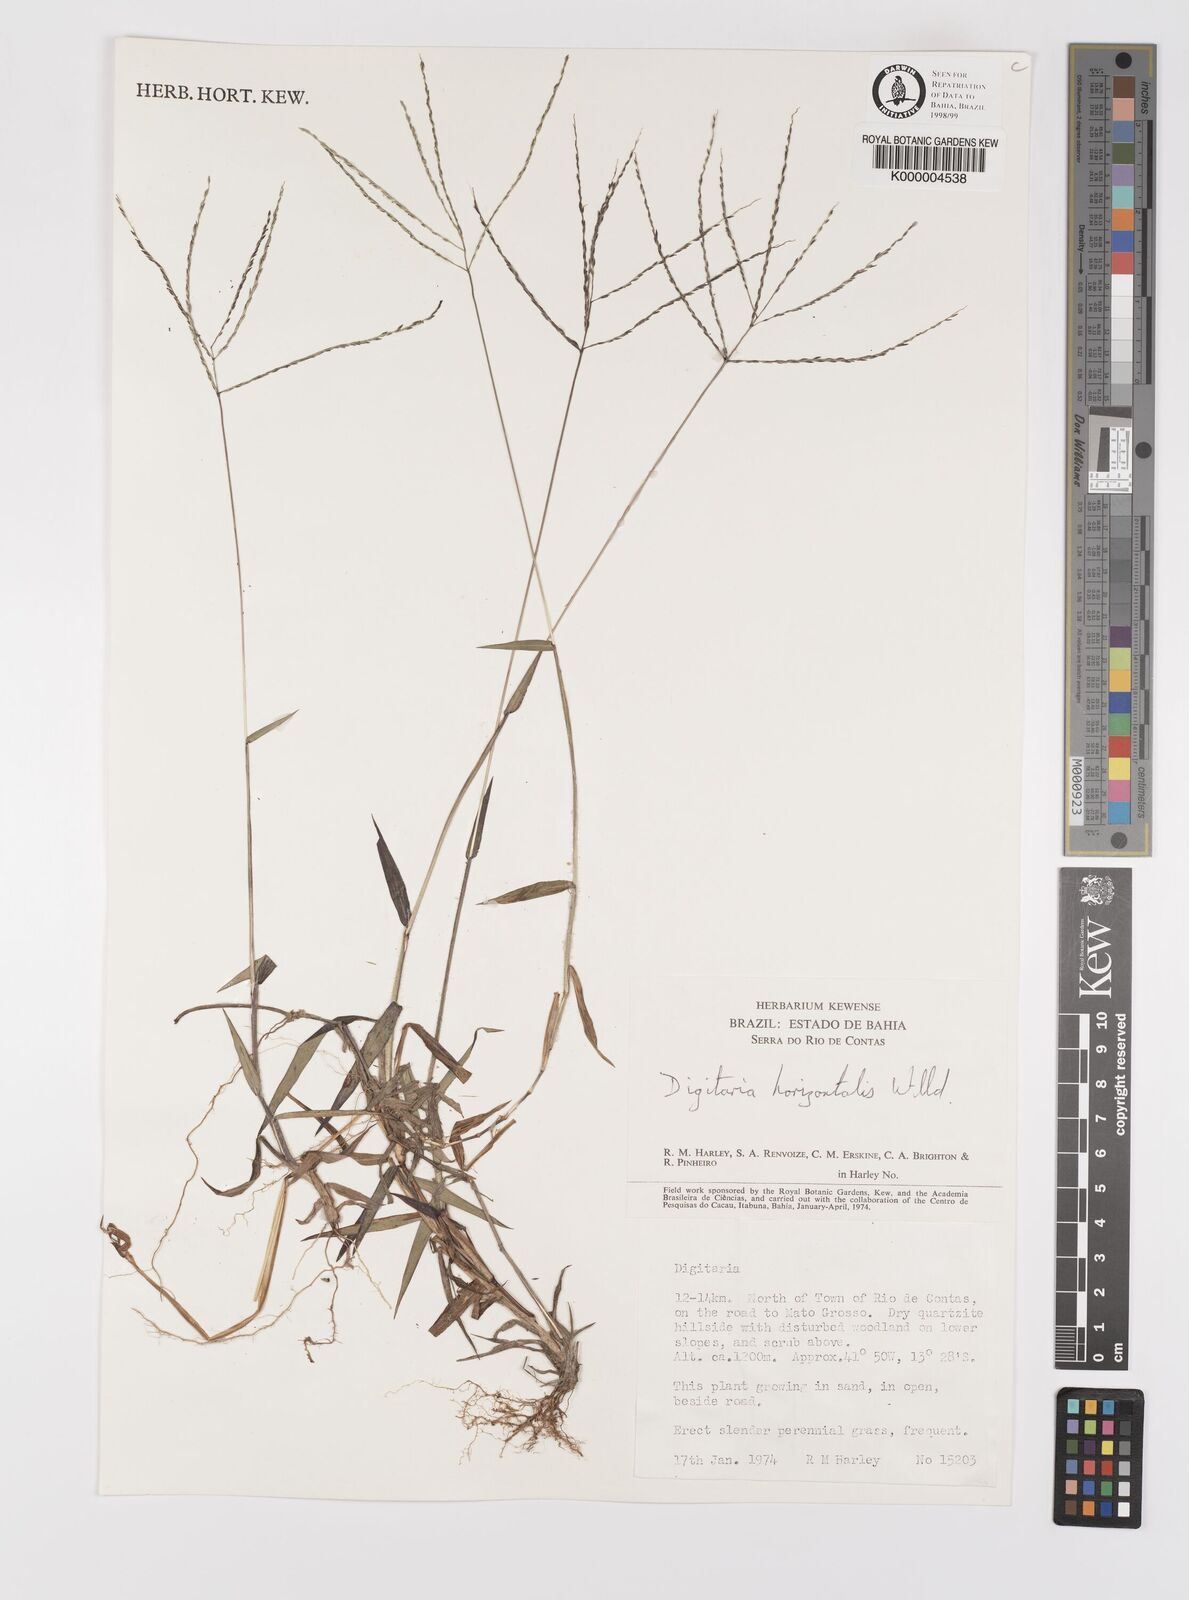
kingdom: Plantae
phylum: Tracheophyta
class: Liliopsida
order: Poales
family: Poaceae
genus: Digitaria
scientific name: Digitaria horizontalis
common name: Jamaican crabgrass
